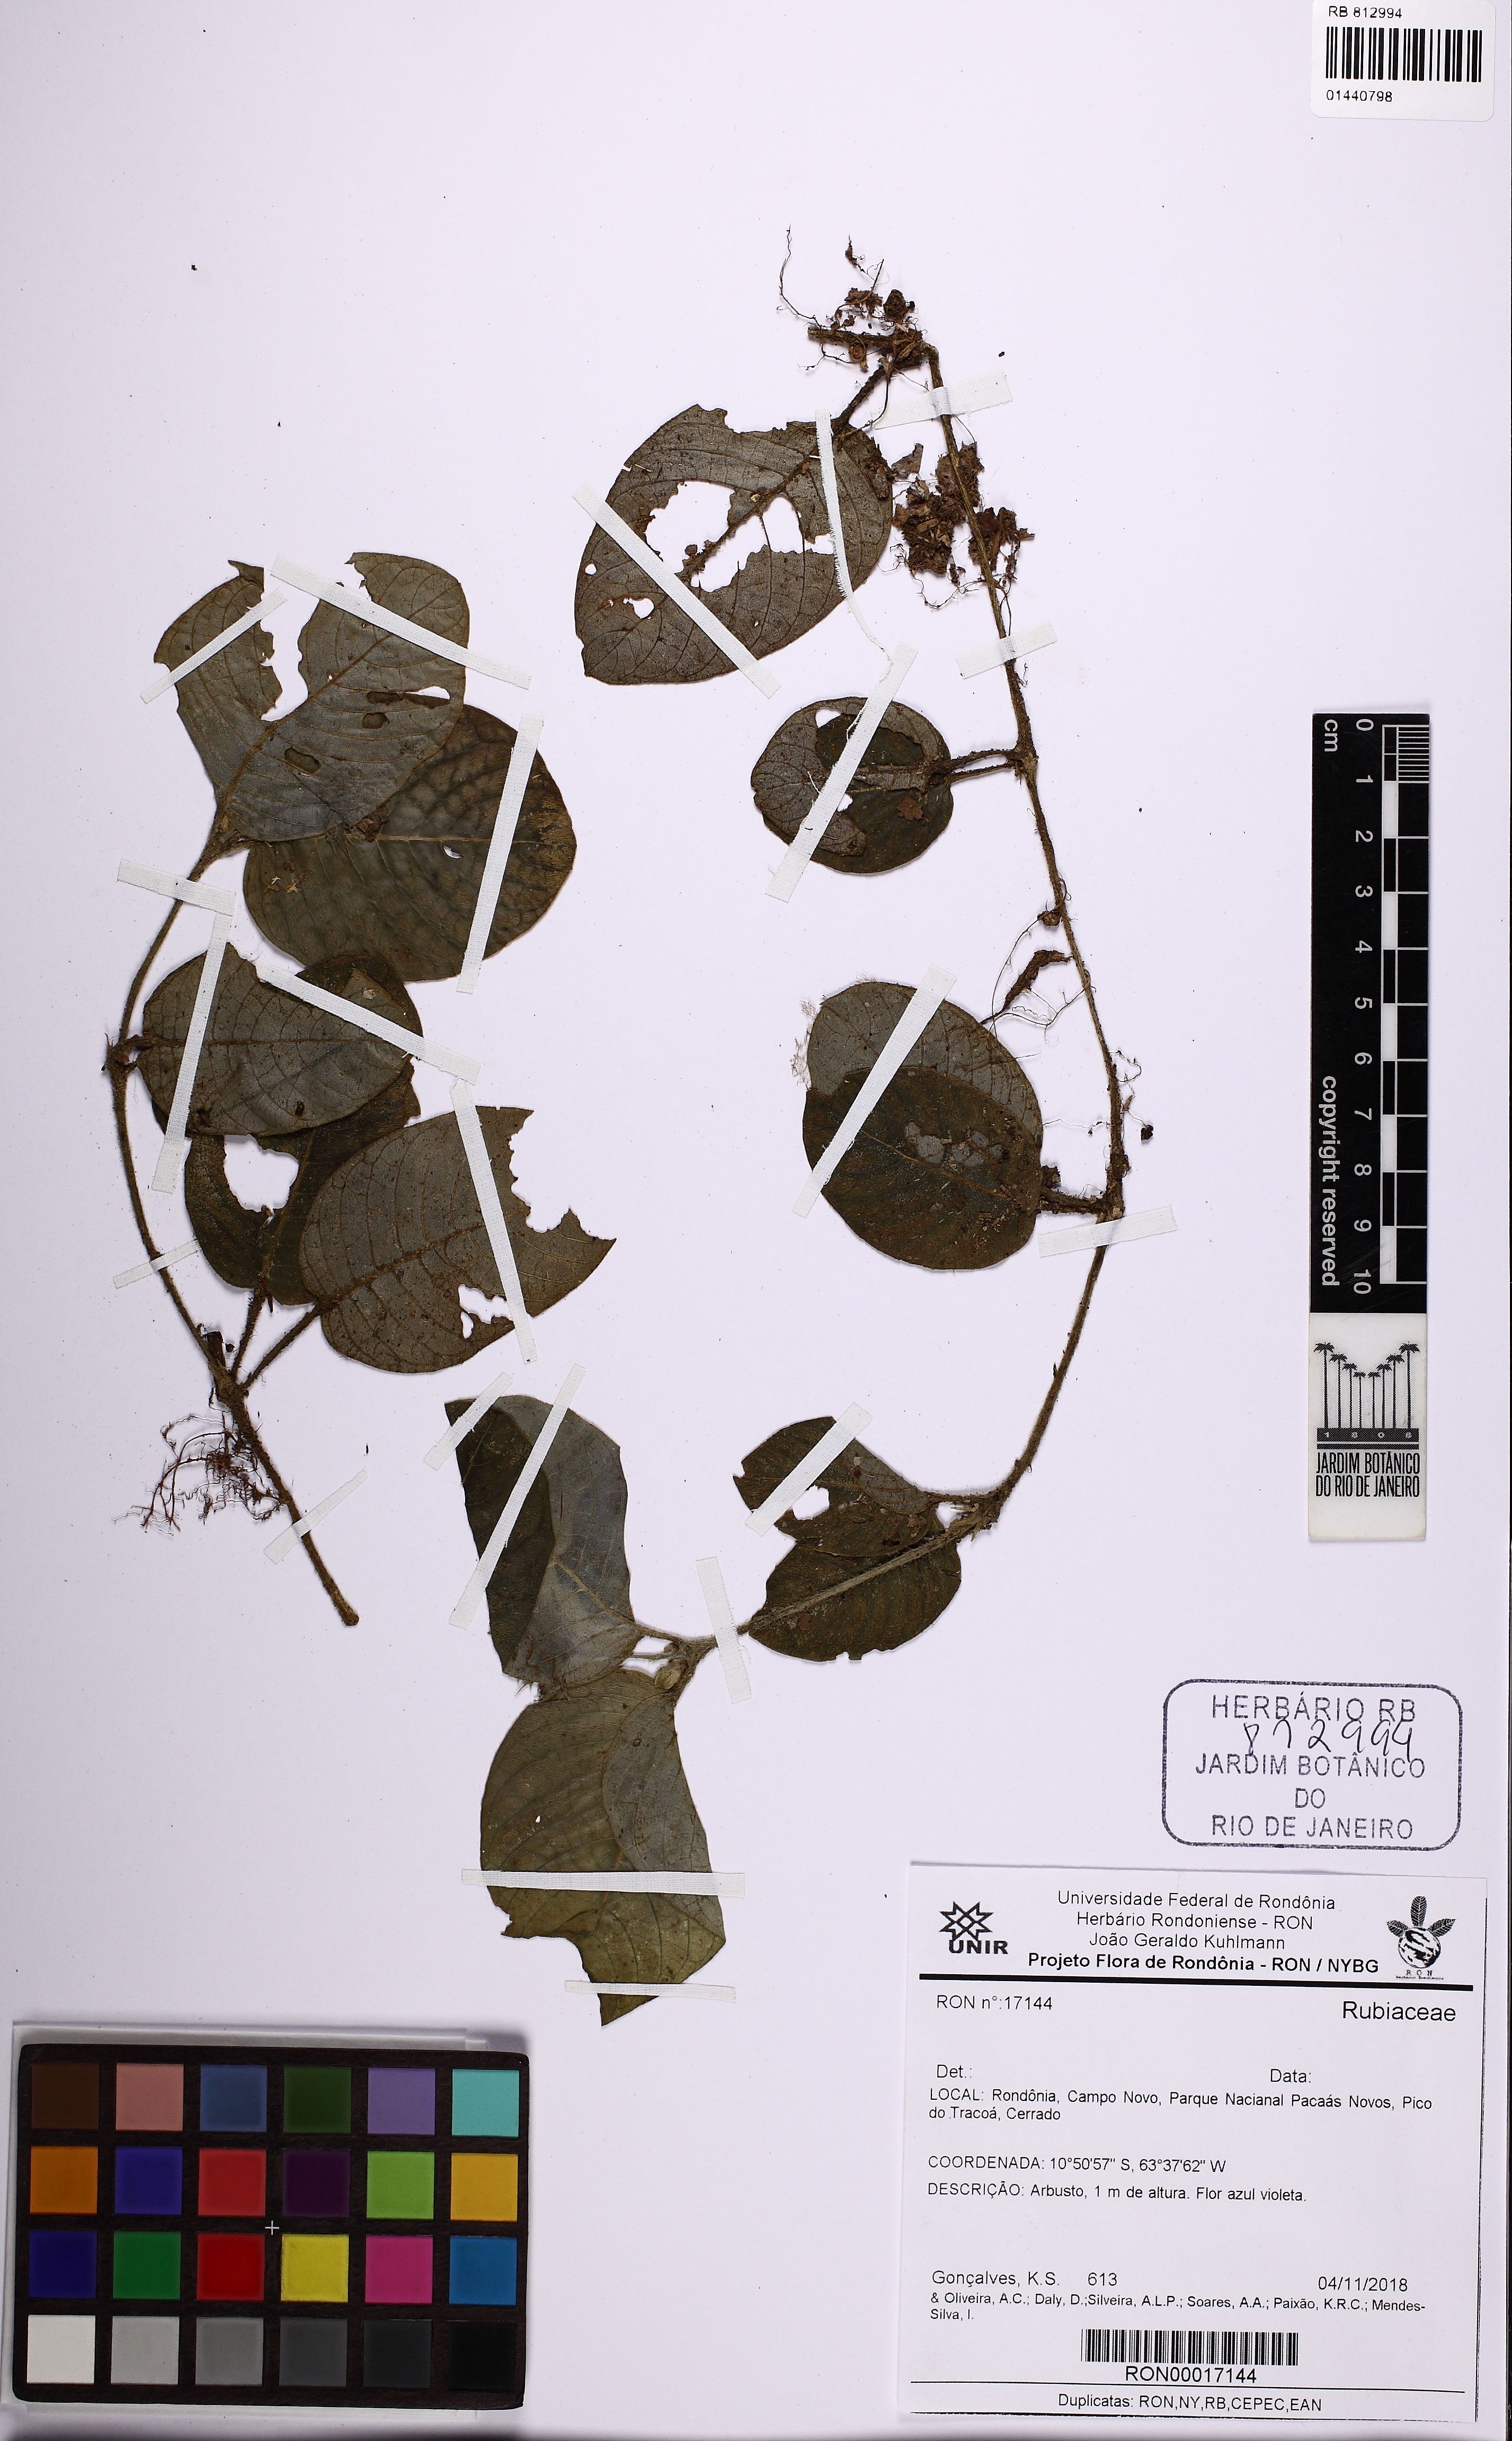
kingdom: Plantae
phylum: Tracheophyta
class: Magnoliopsida
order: Gentianales
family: Rubiaceae
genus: Palicourea
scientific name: Palicourea alba
